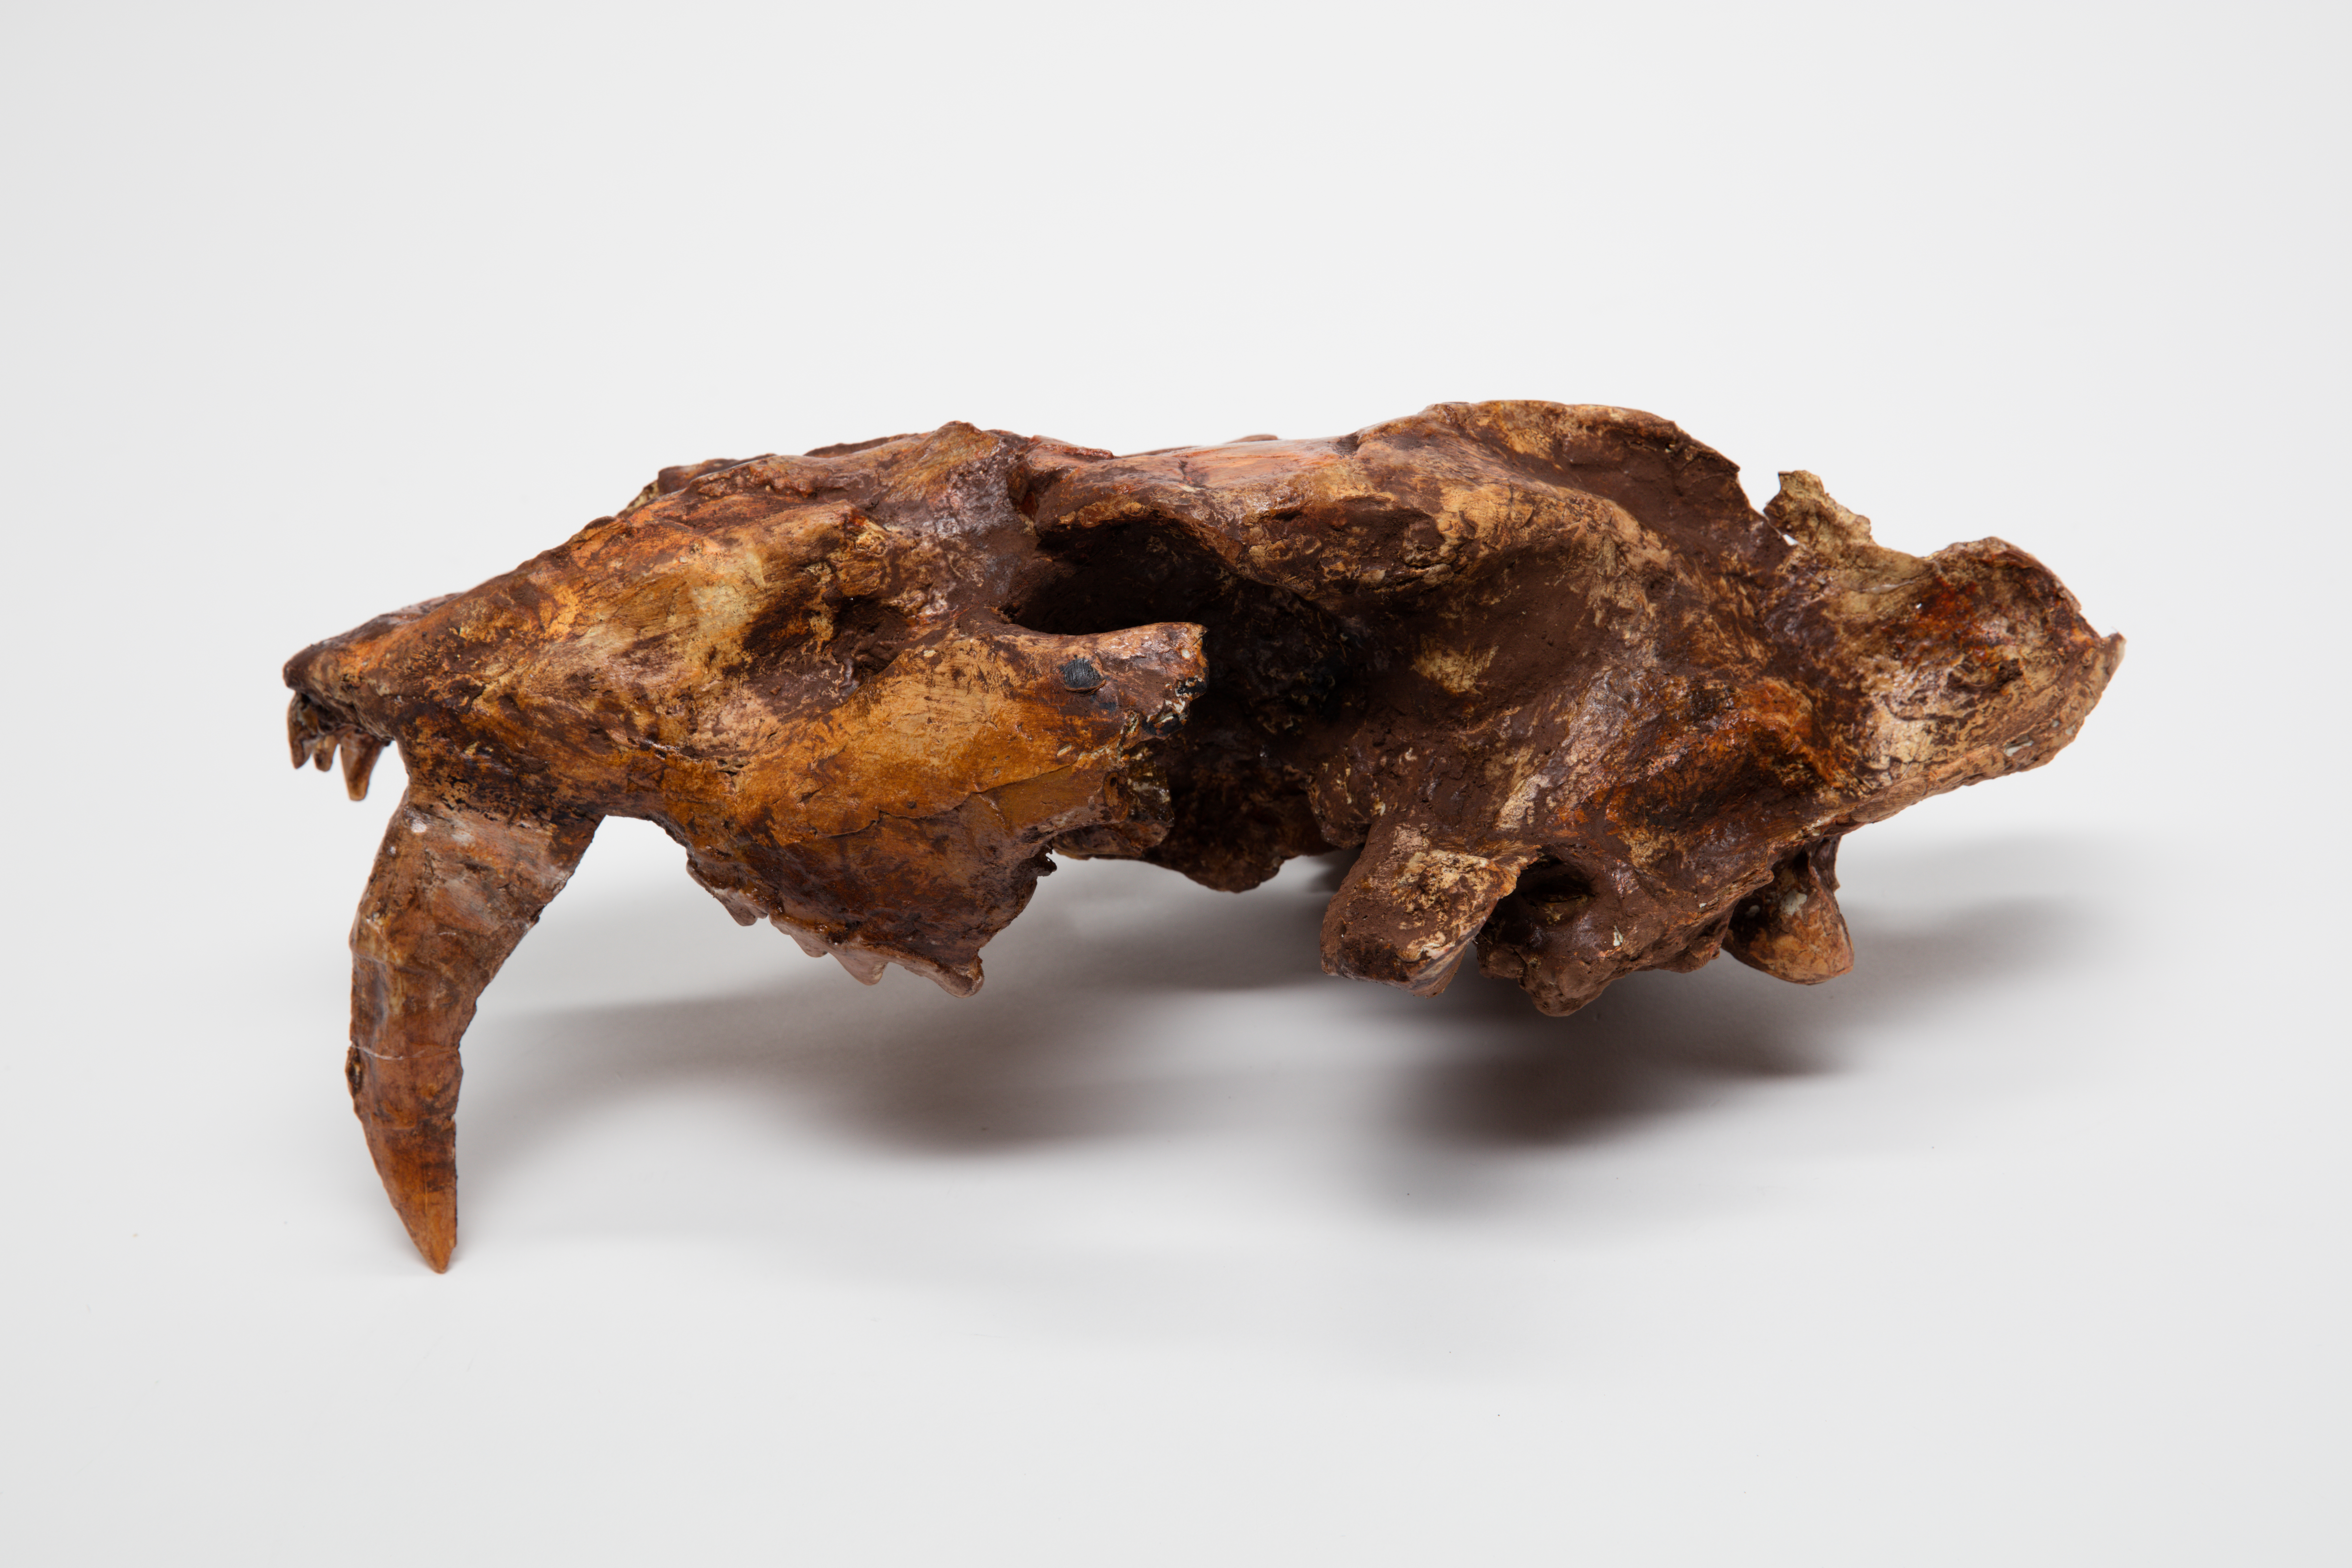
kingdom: Animalia
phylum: Chordata
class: Mammalia
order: Carnivora
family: Felidae
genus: Machairodus
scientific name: Machairodus giganteus
